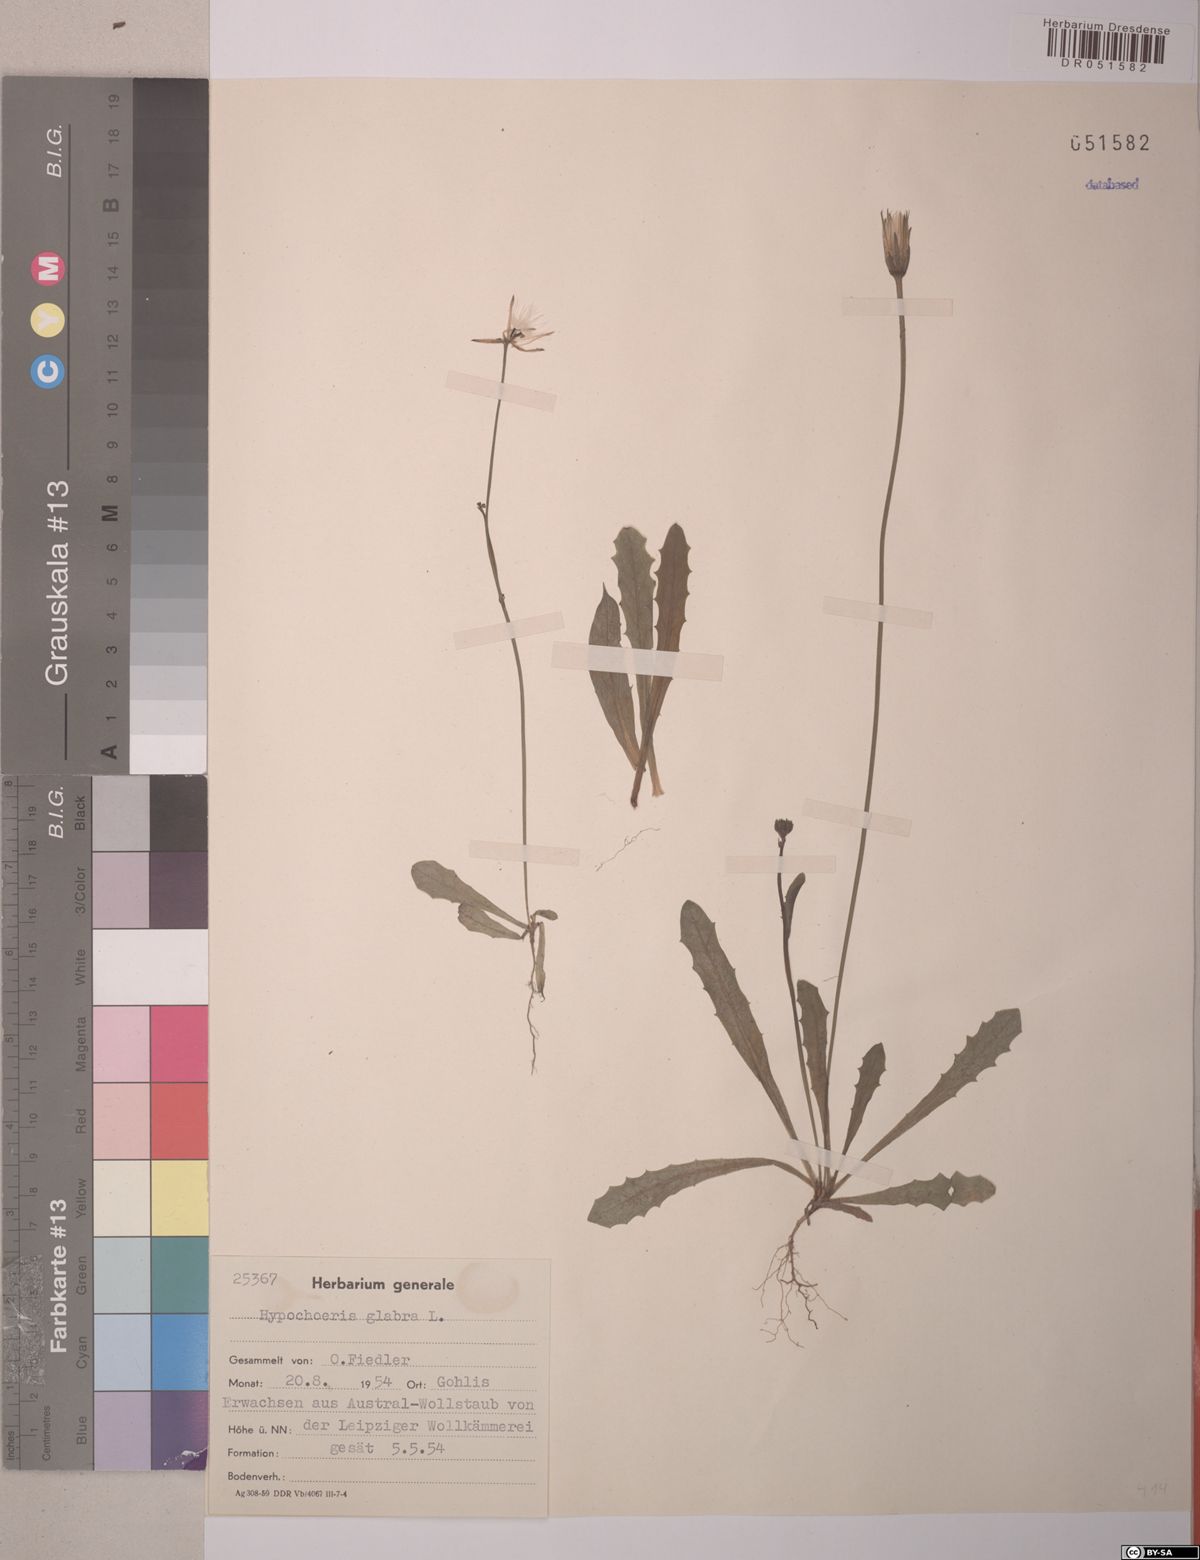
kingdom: Plantae
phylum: Tracheophyta
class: Magnoliopsida
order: Asterales
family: Asteraceae
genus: Hypochaeris
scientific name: Hypochaeris glabra
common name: Smooth catsear
